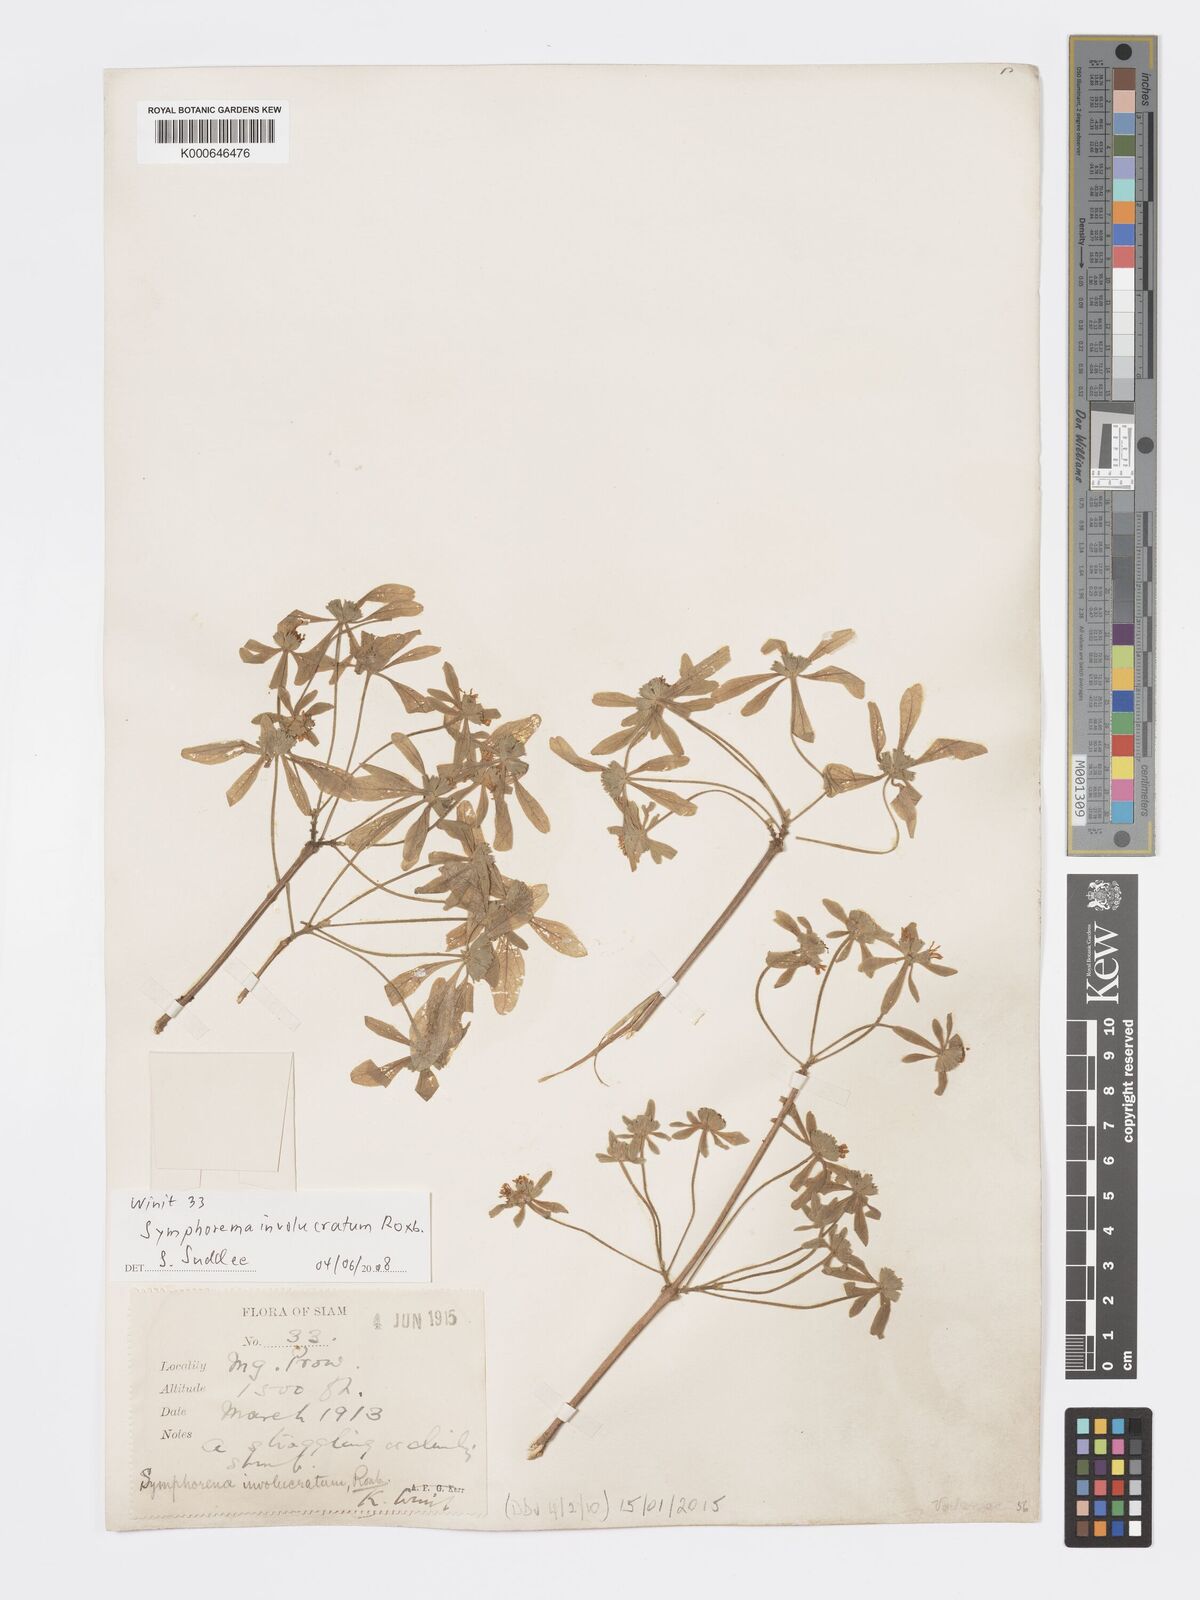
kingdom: Plantae
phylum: Tracheophyta
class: Magnoliopsida
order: Lamiales
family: Lamiaceae
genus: Symphorema
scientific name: Symphorema involucratum
